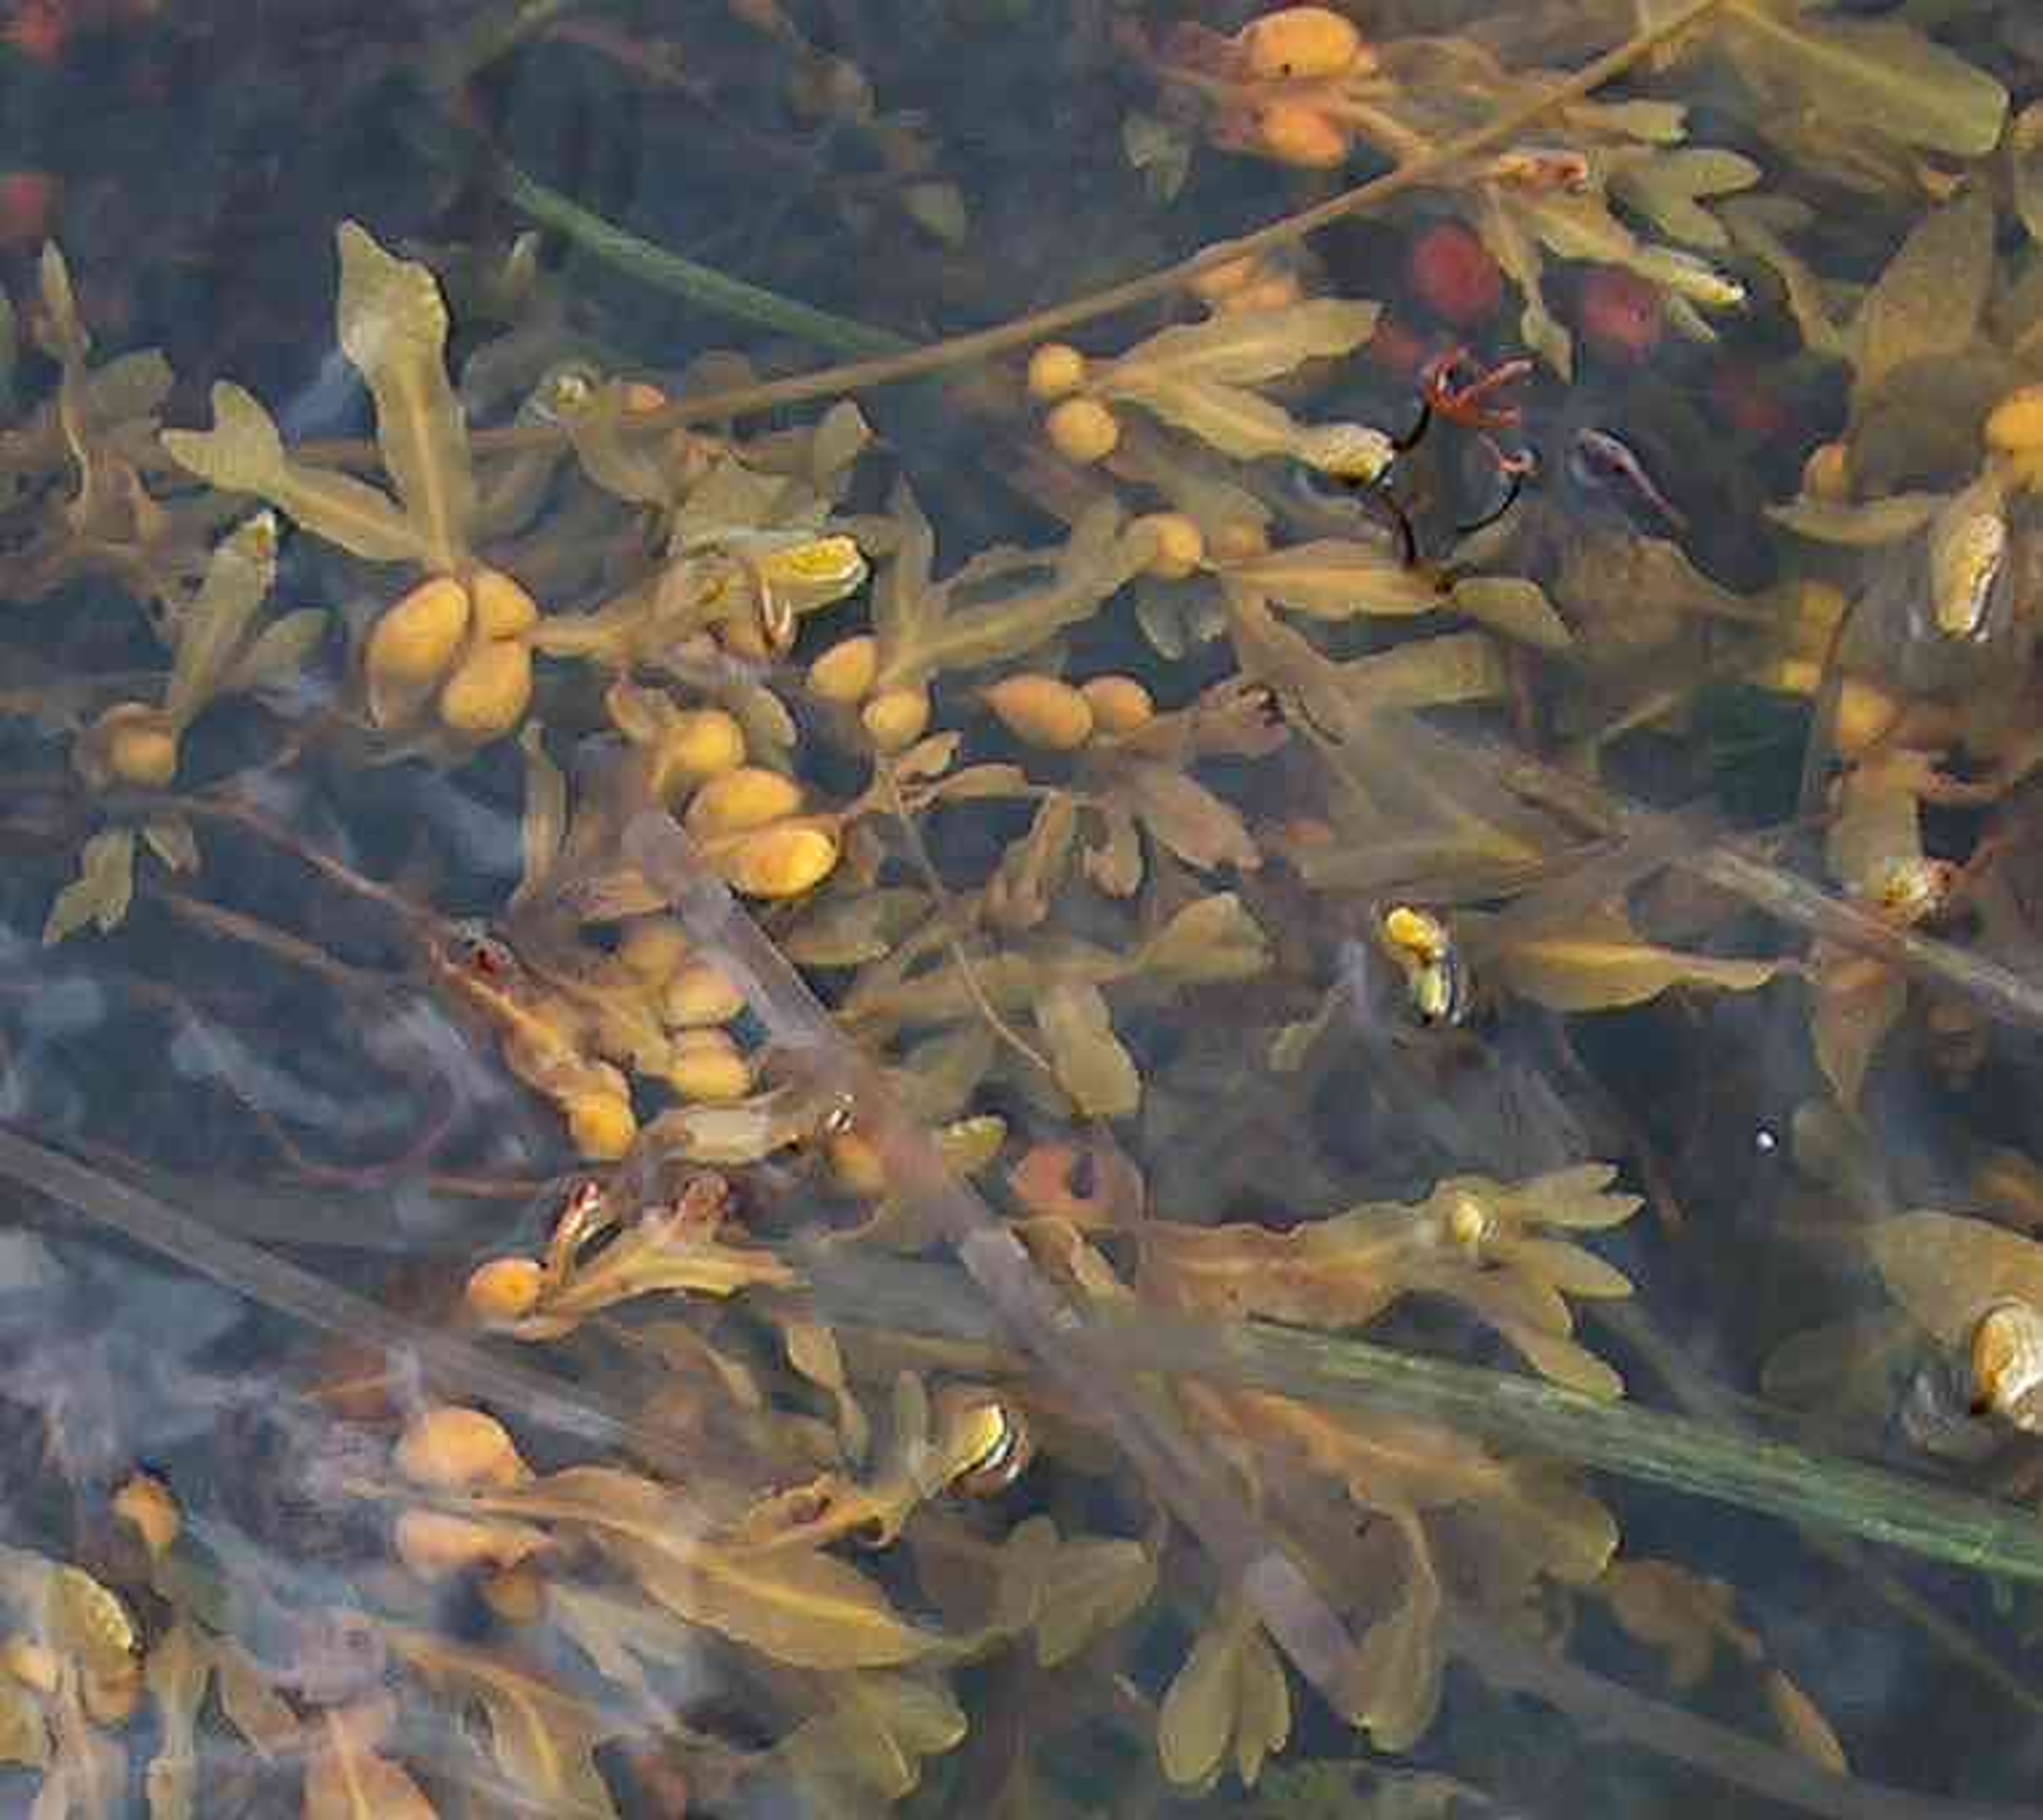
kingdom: Chromista
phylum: Ochrophyta
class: Phaeophyceae
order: Fucales
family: Fucaceae
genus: Fucus
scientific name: Fucus vesiculosus
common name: Blæretang
